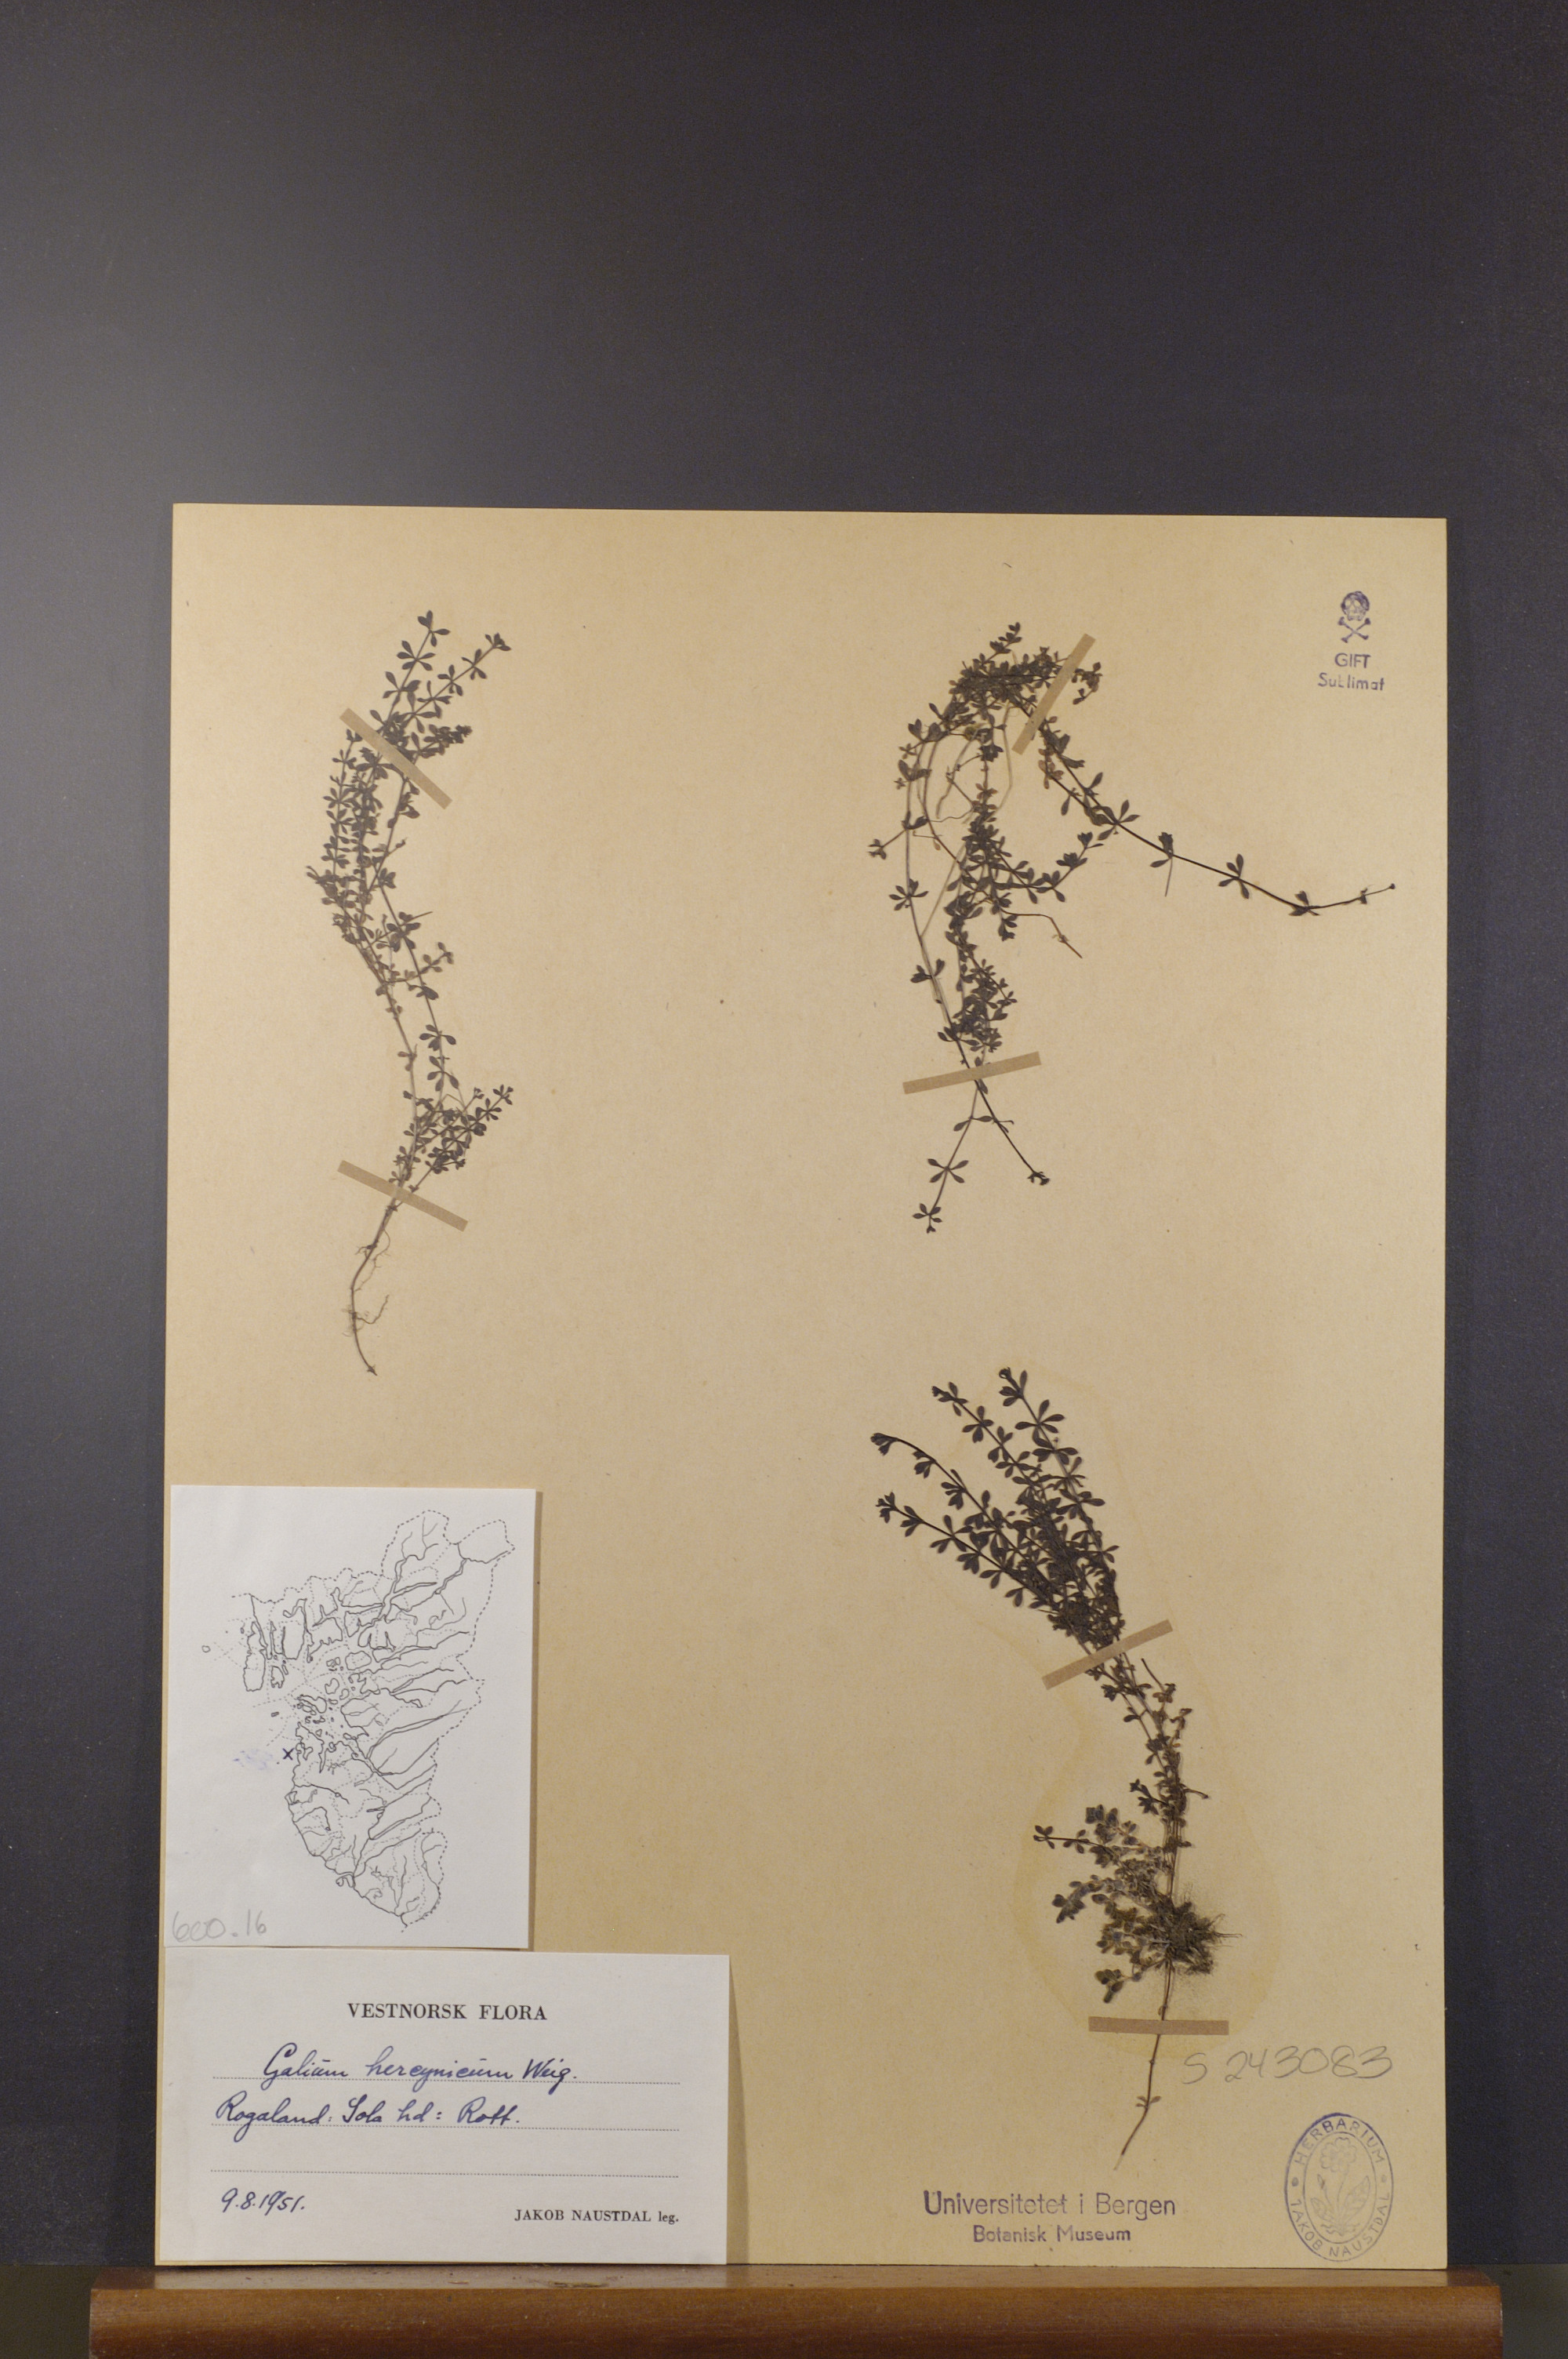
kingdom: Plantae
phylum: Tracheophyta
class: Magnoliopsida
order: Gentianales
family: Rubiaceae
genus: Galium
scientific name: Galium saxatile
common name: Heath bedstraw
